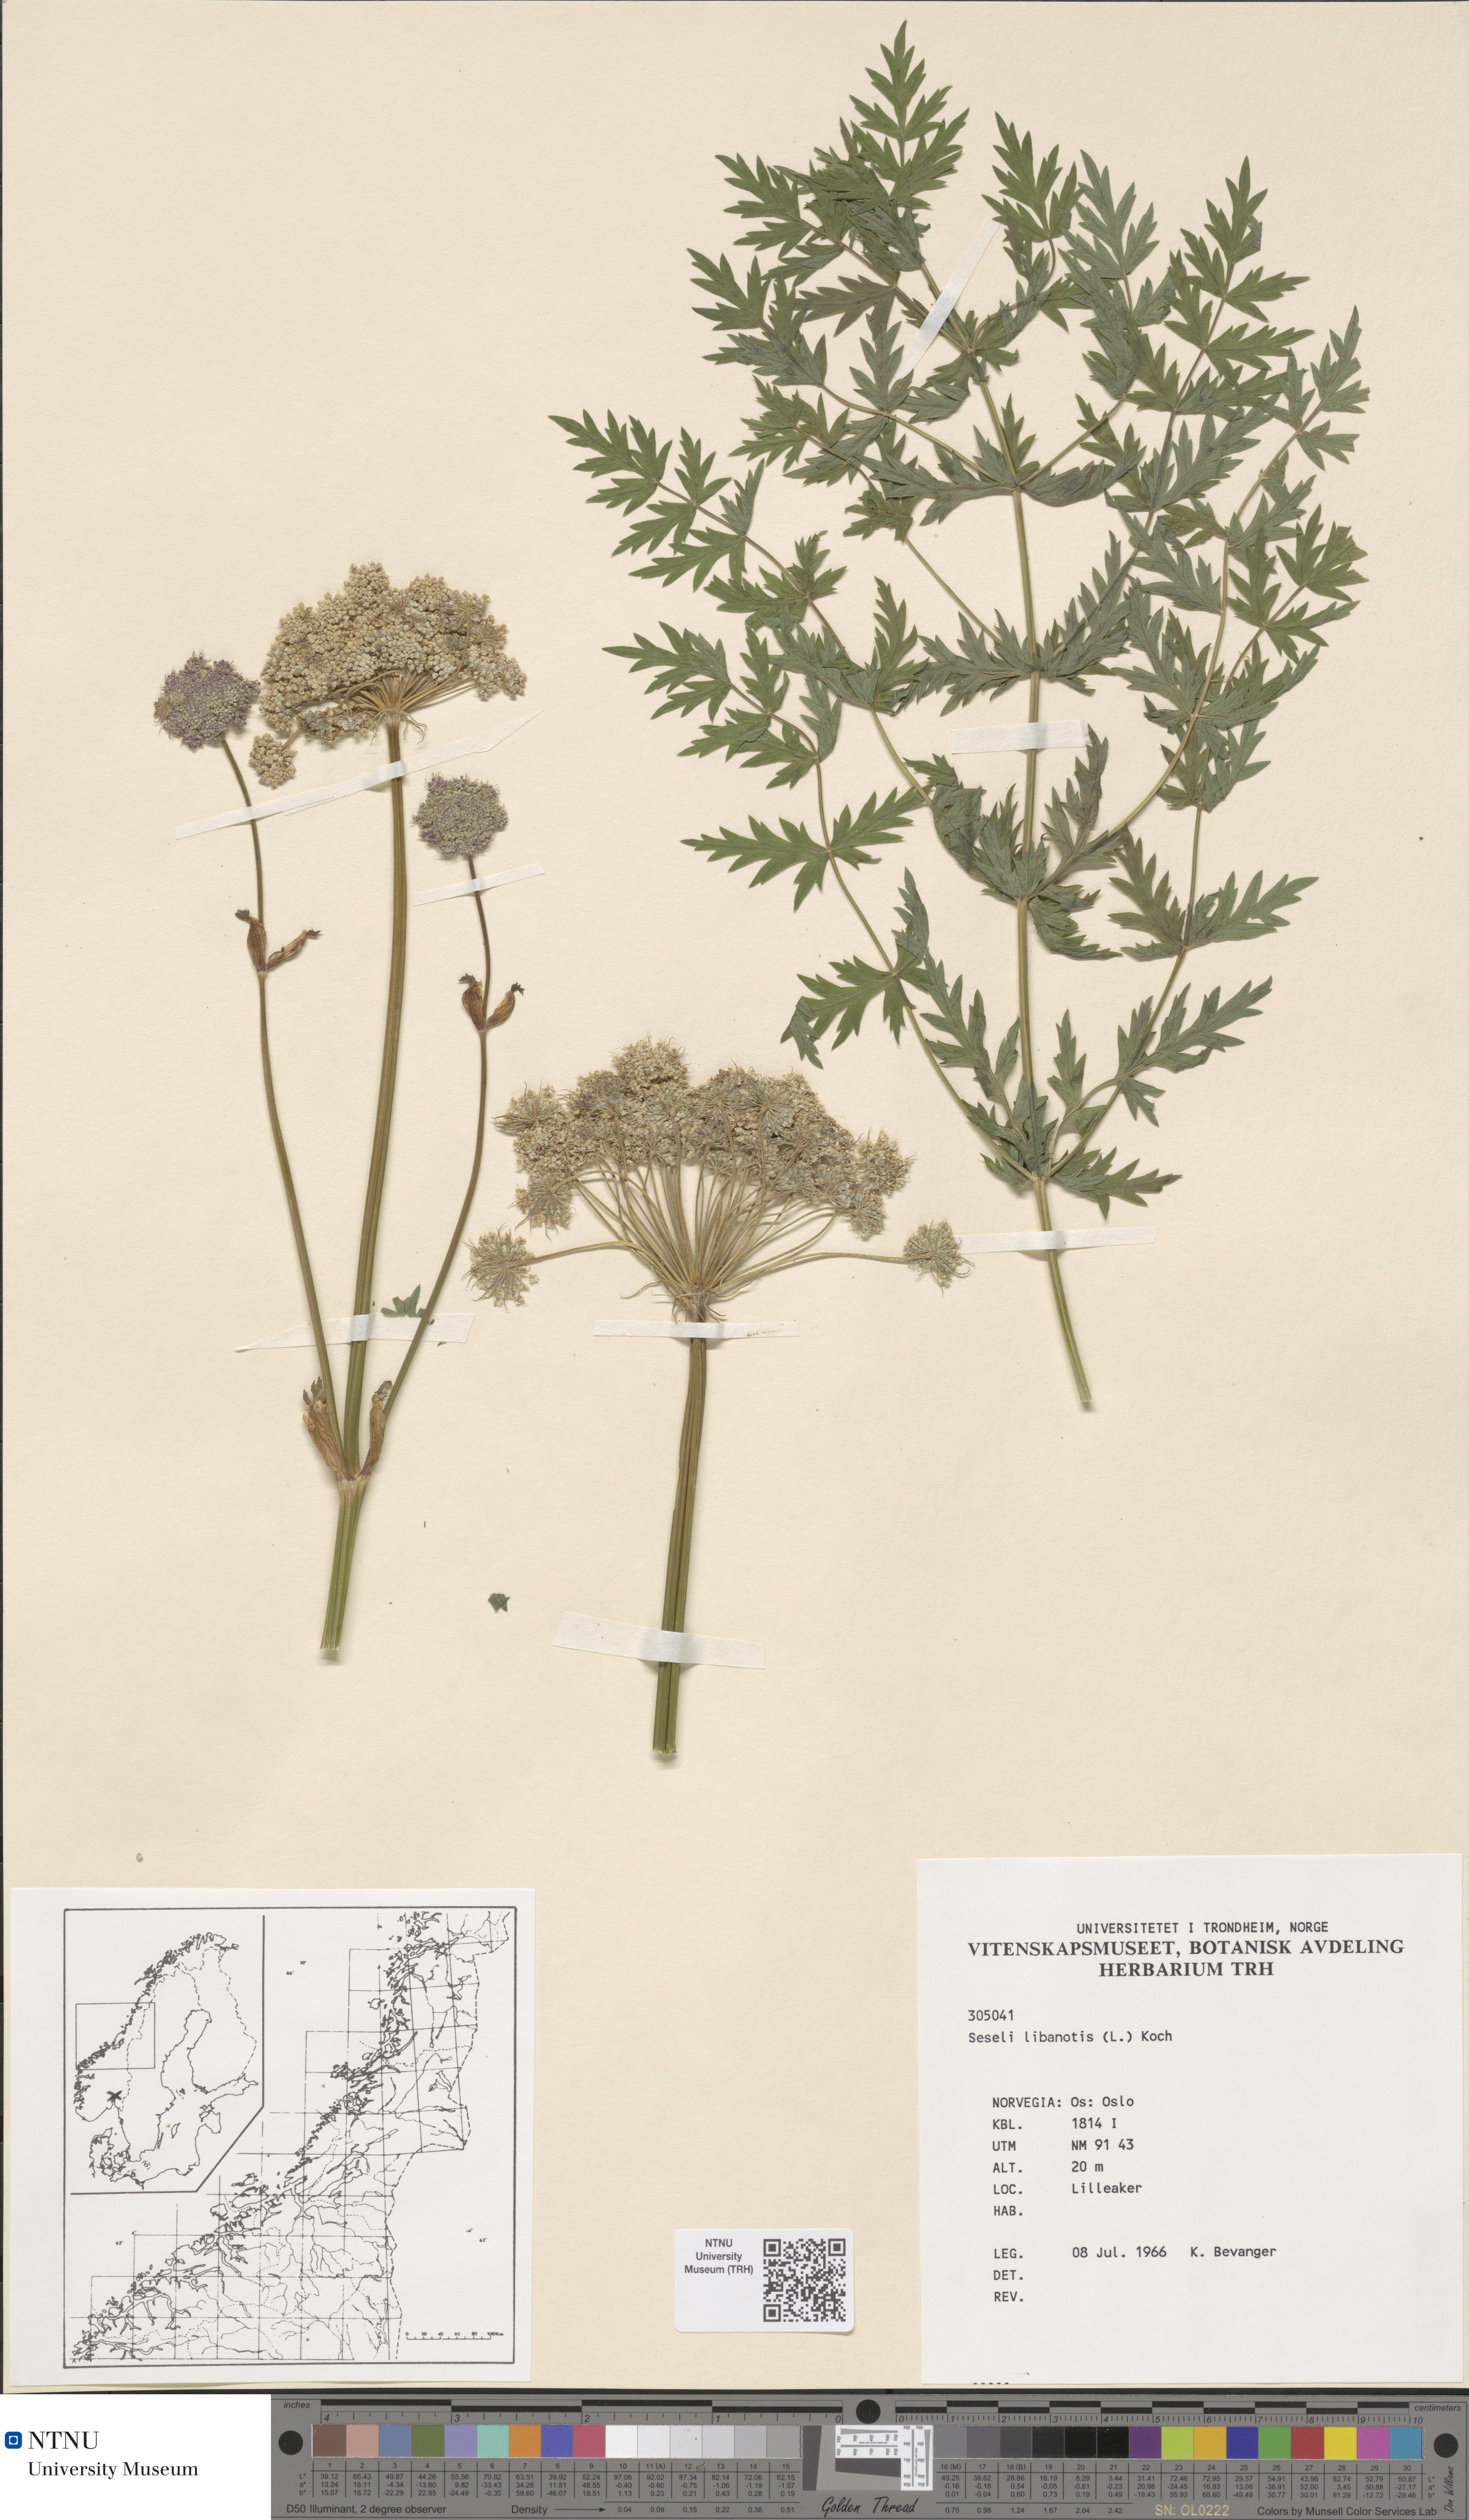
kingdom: Plantae
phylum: Tracheophyta
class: Magnoliopsida
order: Apiales
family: Apiaceae
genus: Seseli
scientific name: Seseli libanotis
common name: Mooncarrot
